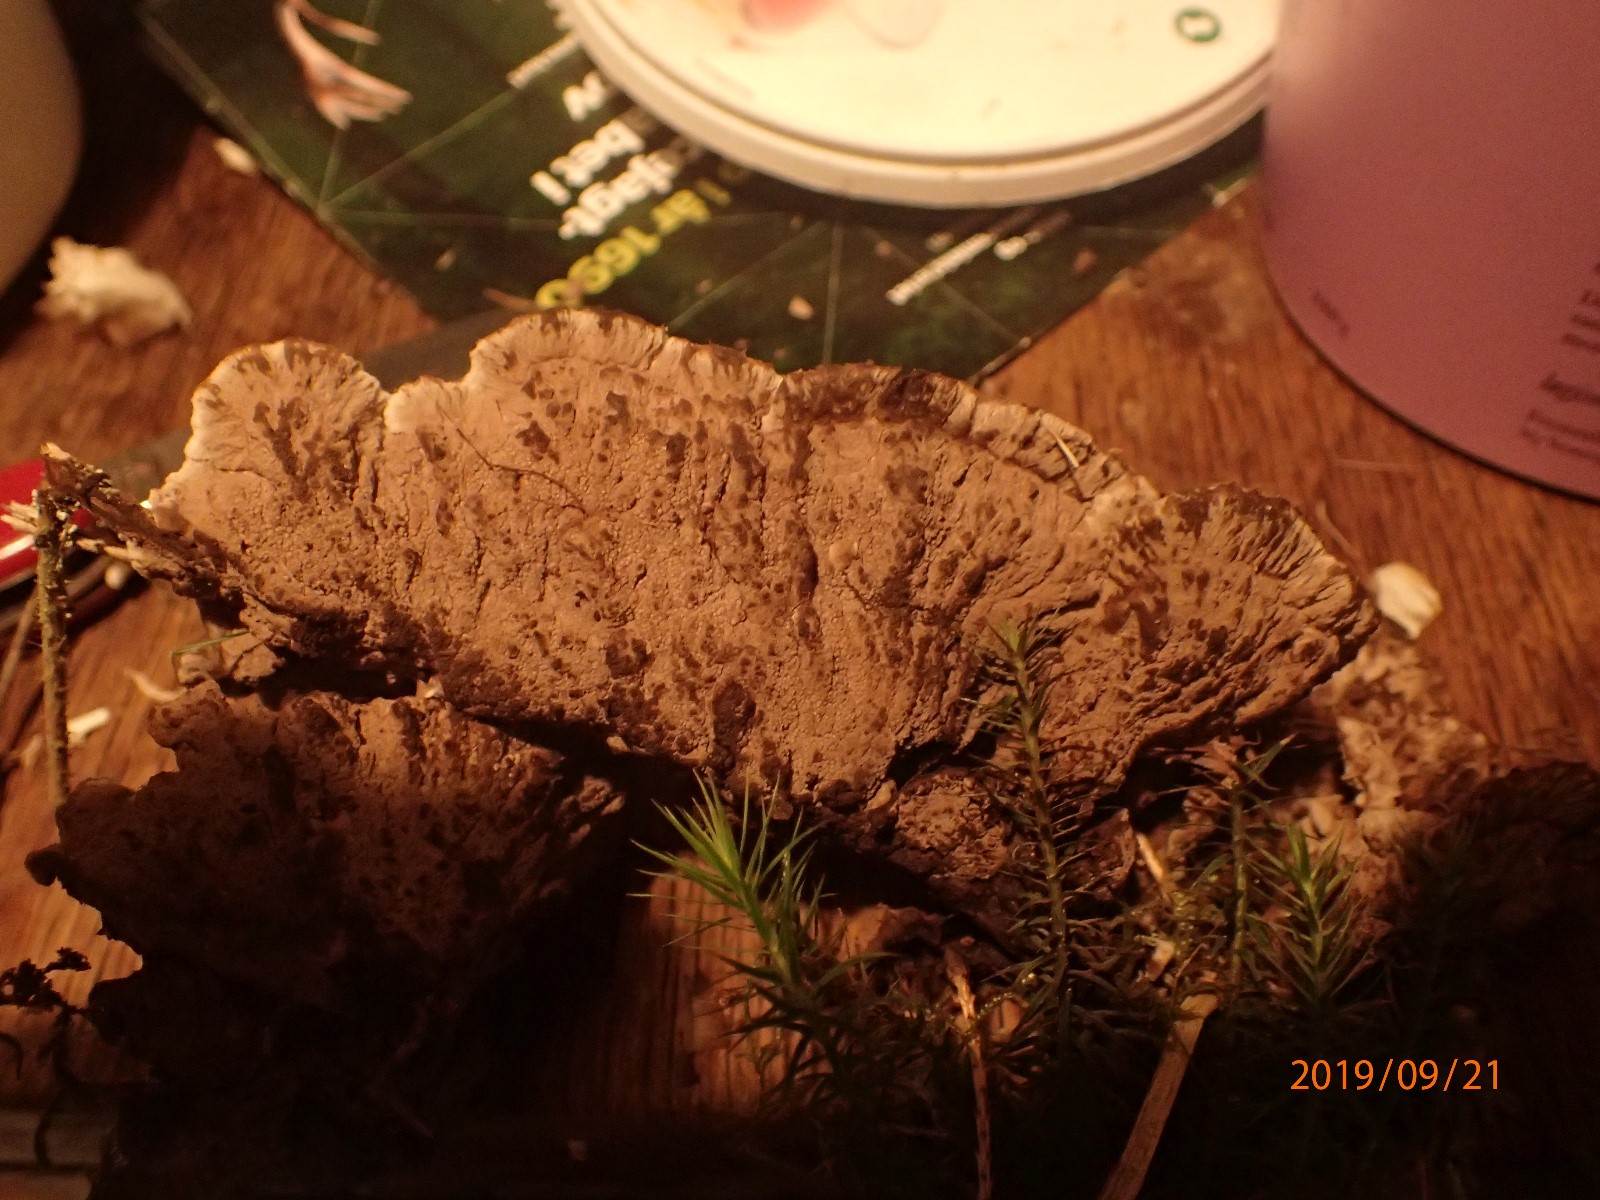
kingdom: Fungi
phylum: Basidiomycota
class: Agaricomycetes
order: Thelephorales
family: Thelephoraceae
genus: Thelephora
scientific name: Thelephora terrestris
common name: fliget frynsesvamp
